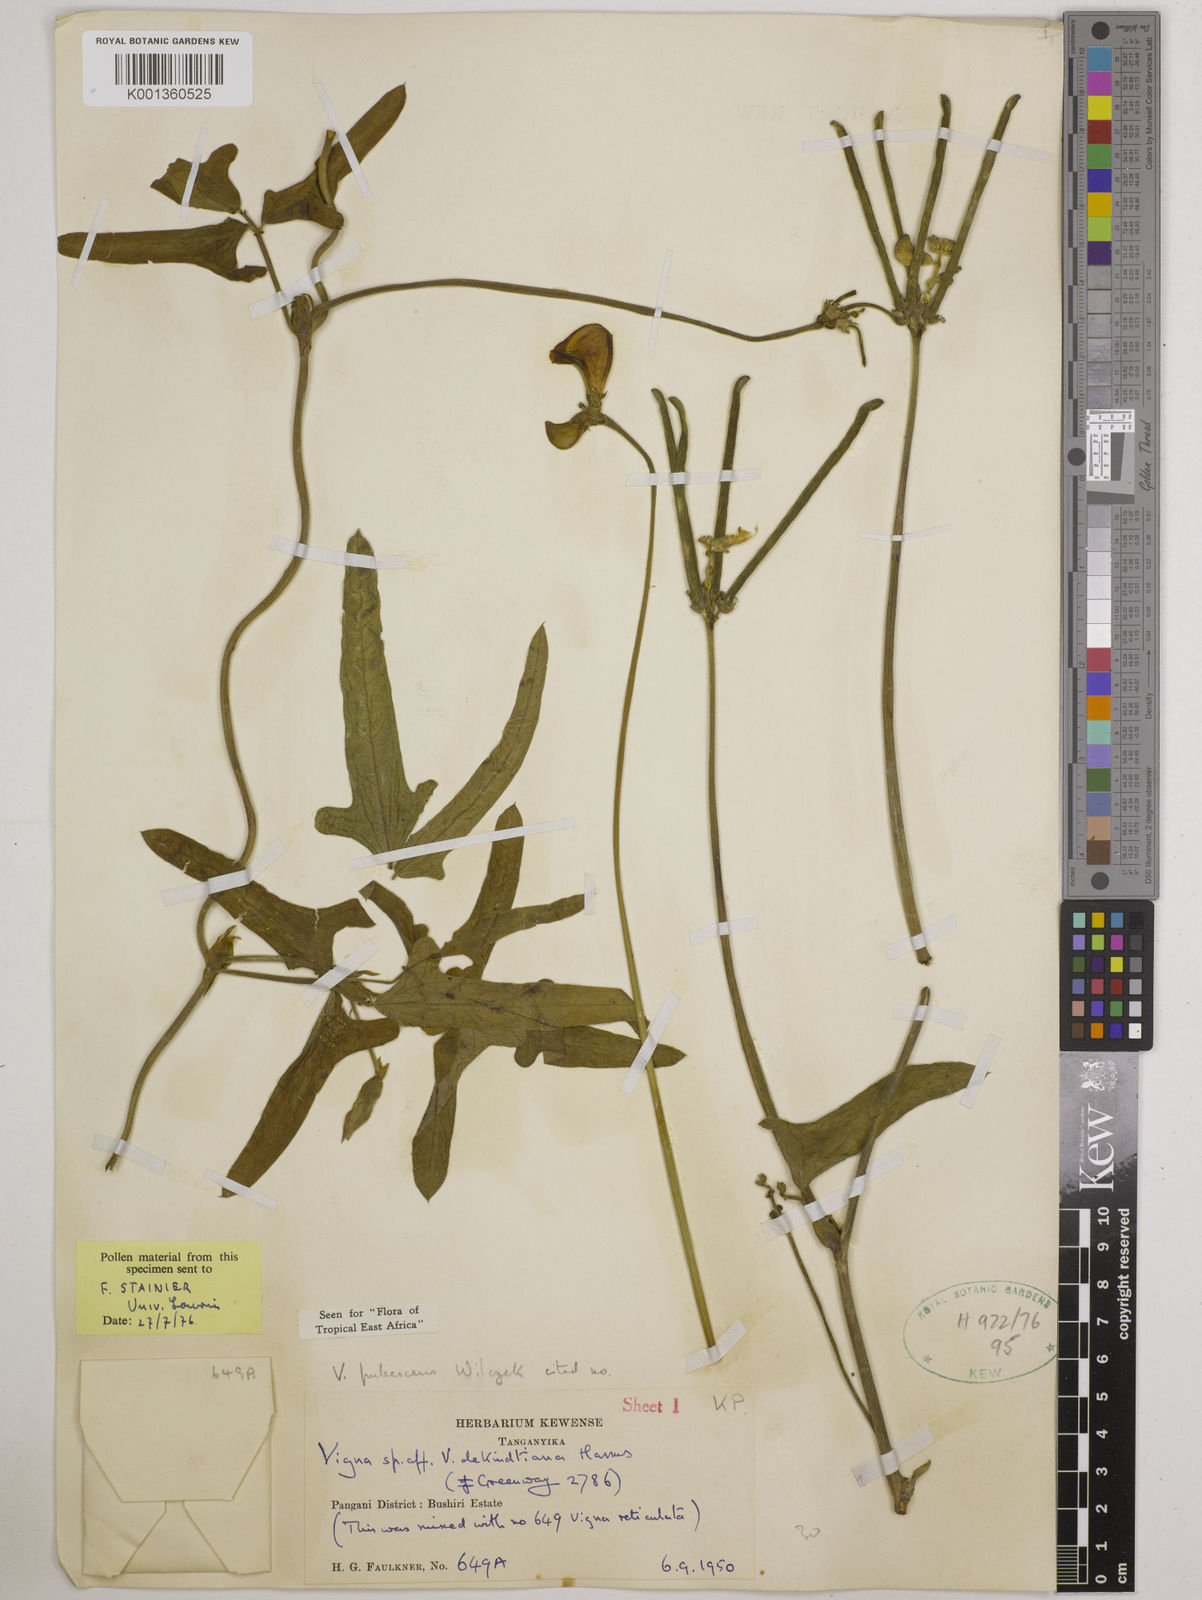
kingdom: Plantae
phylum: Tracheophyta
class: Magnoliopsida
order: Fabales
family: Fabaceae
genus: Vigna
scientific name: Vigna unguiculata
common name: Cowpea
